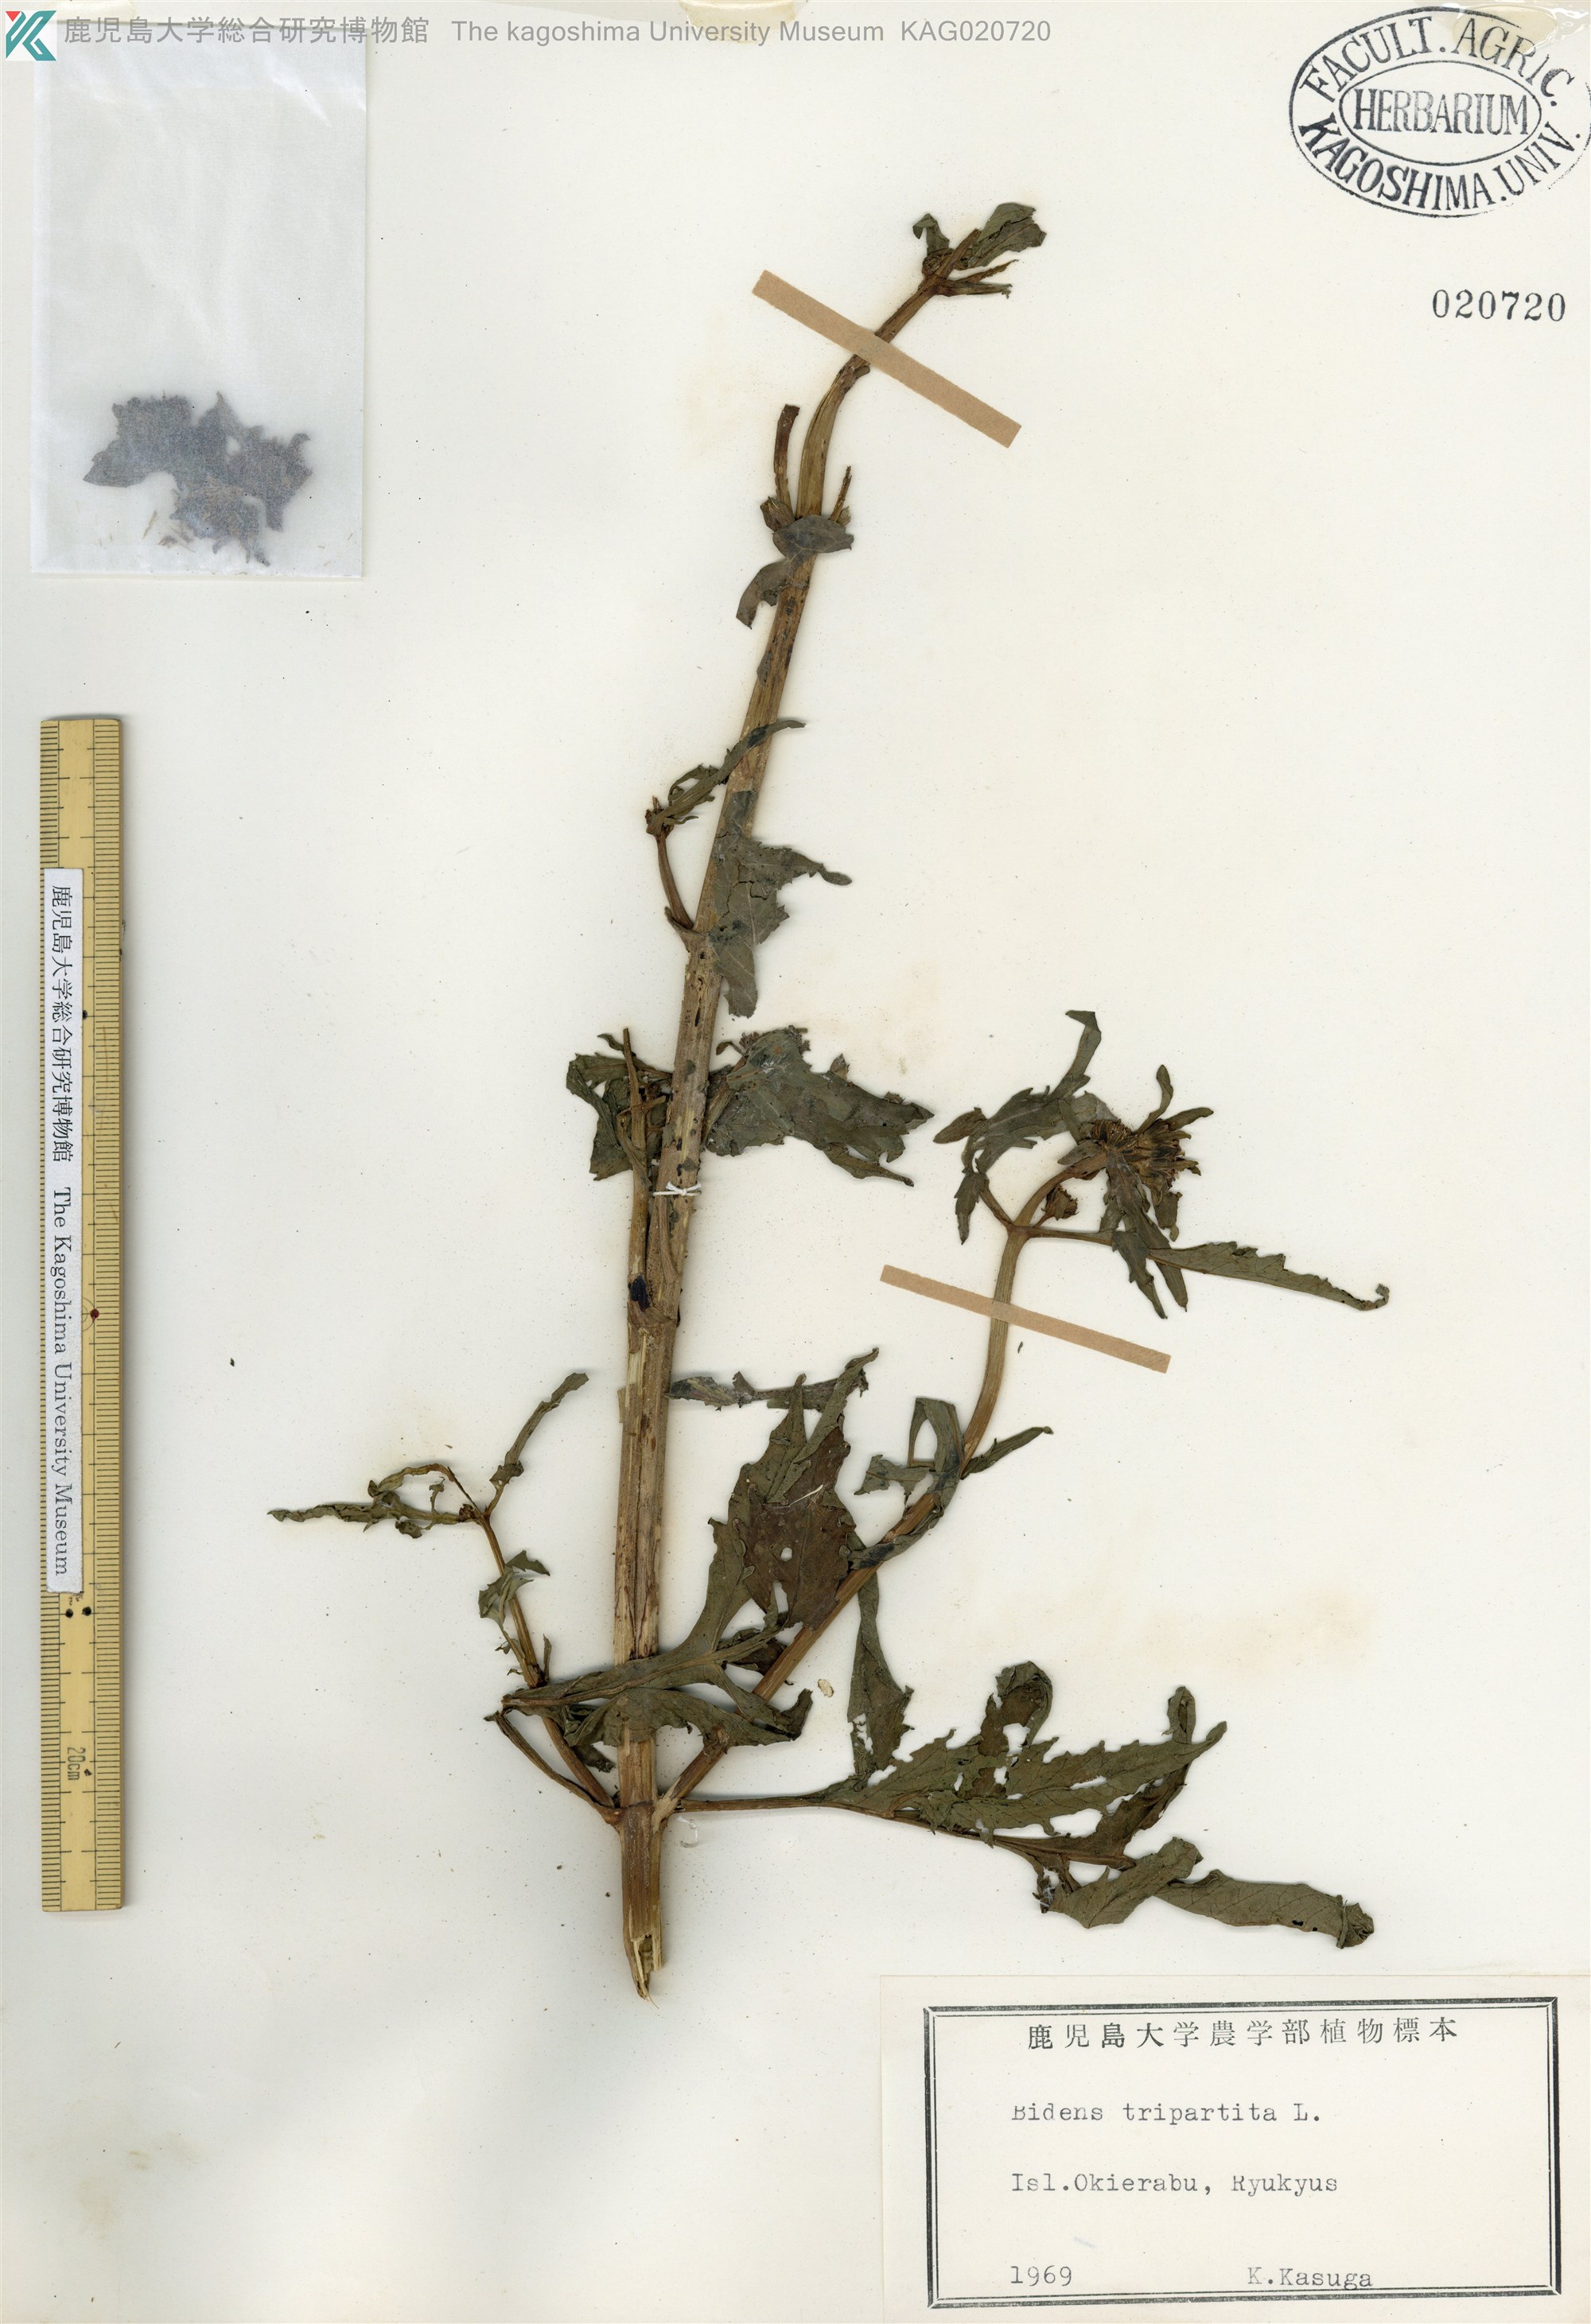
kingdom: Plantae
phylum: Tracheophyta
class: Magnoliopsida
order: Asterales
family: Asteraceae
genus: Bidens
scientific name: Bidens tripartita
